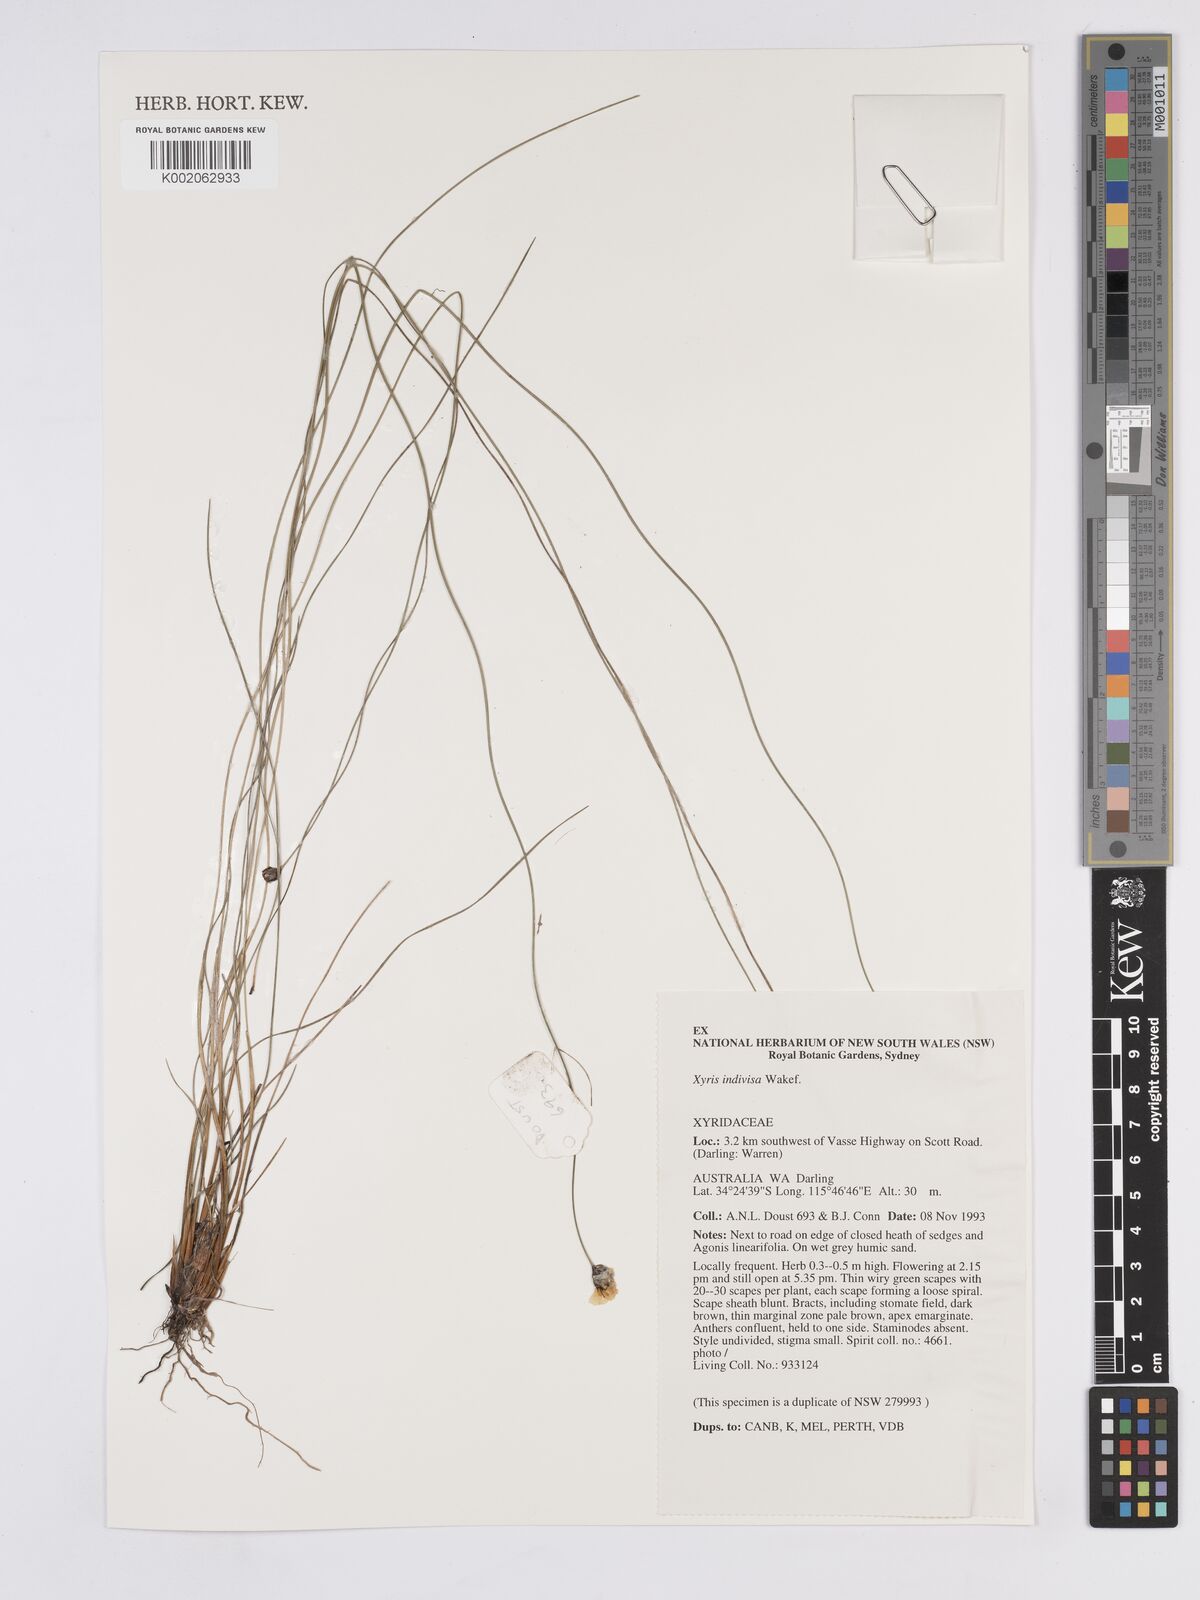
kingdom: Plantae
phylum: Tracheophyta
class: Liliopsida
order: Poales
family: Xyridaceae
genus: Xyris
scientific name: Xyris indivisa
